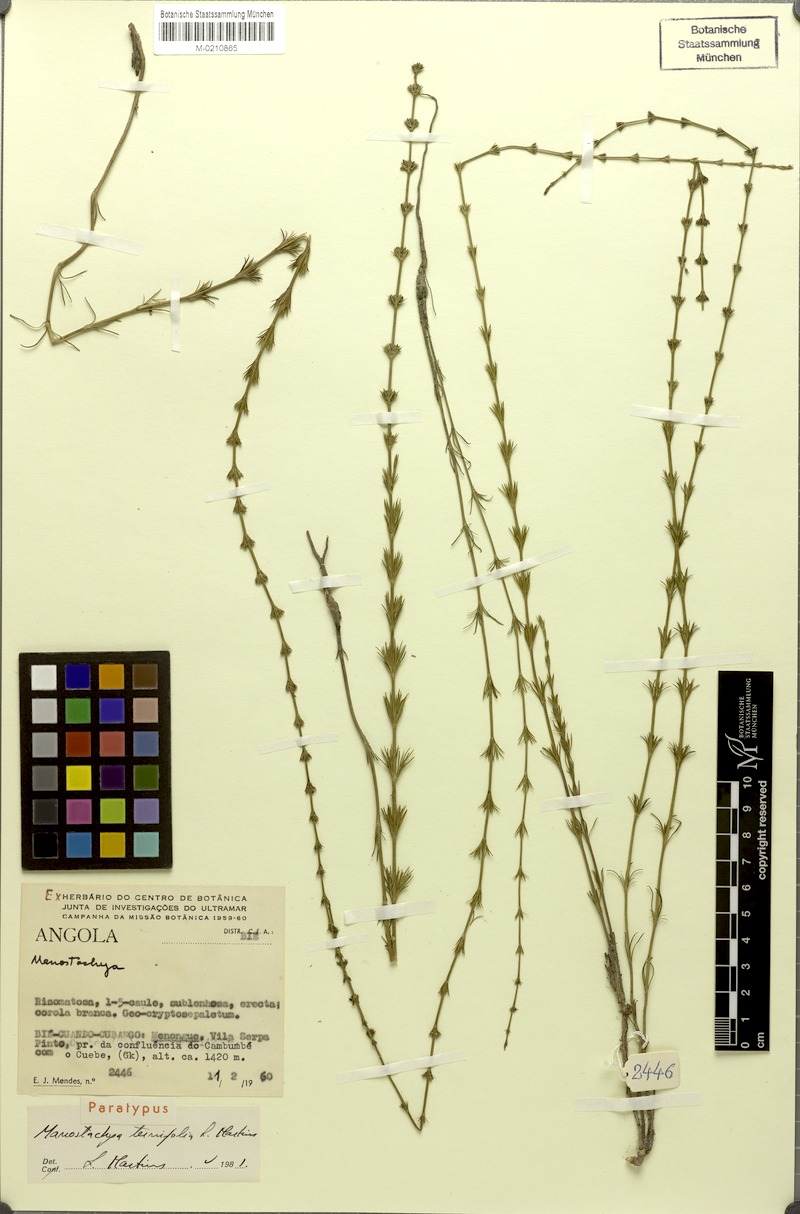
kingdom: Plantae
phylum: Tracheophyta
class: Magnoliopsida
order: Gentianales
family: Rubiaceae
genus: Manostachya
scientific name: Manostachya ternifolia
